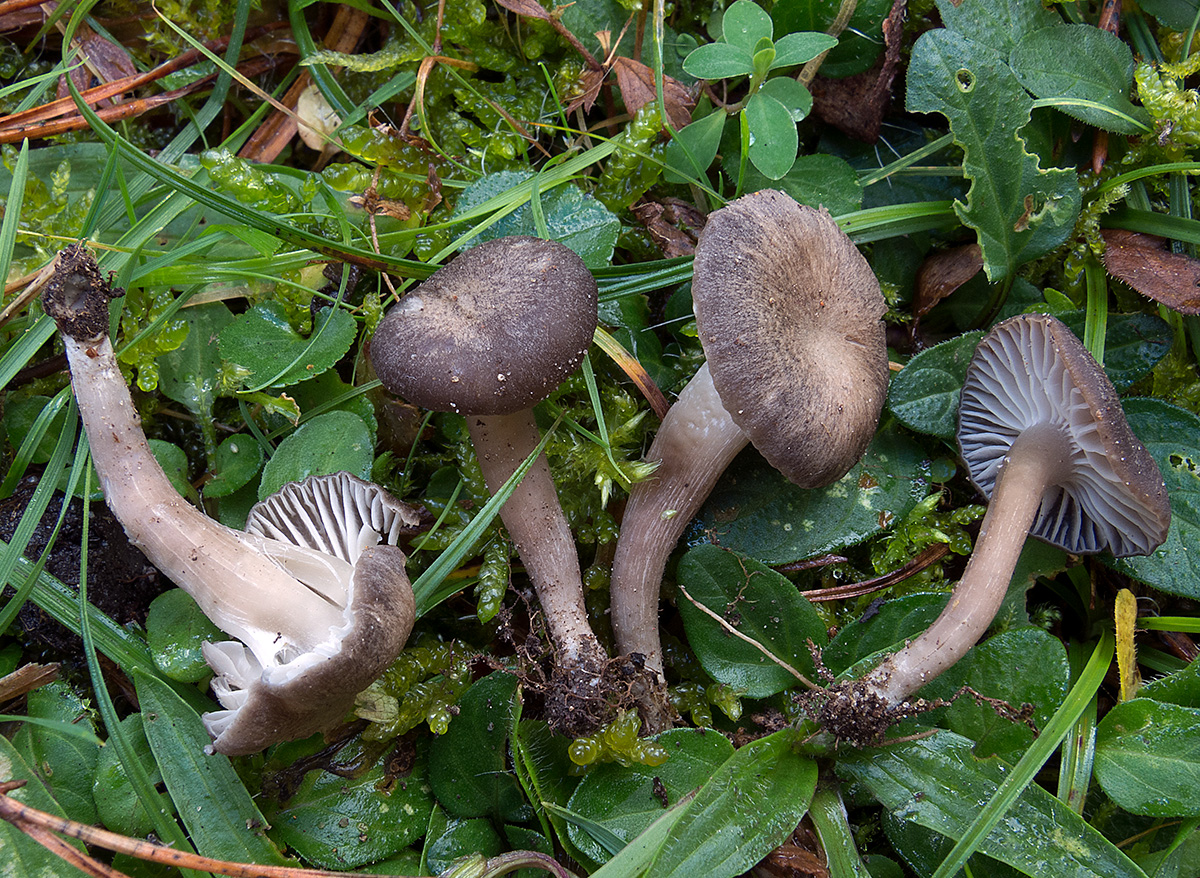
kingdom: Fungi
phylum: Basidiomycota
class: Agaricomycetes
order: Agaricales
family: Clavariaceae
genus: Lamelloclavaria
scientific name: Lamelloclavaria
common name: kratvokshat
